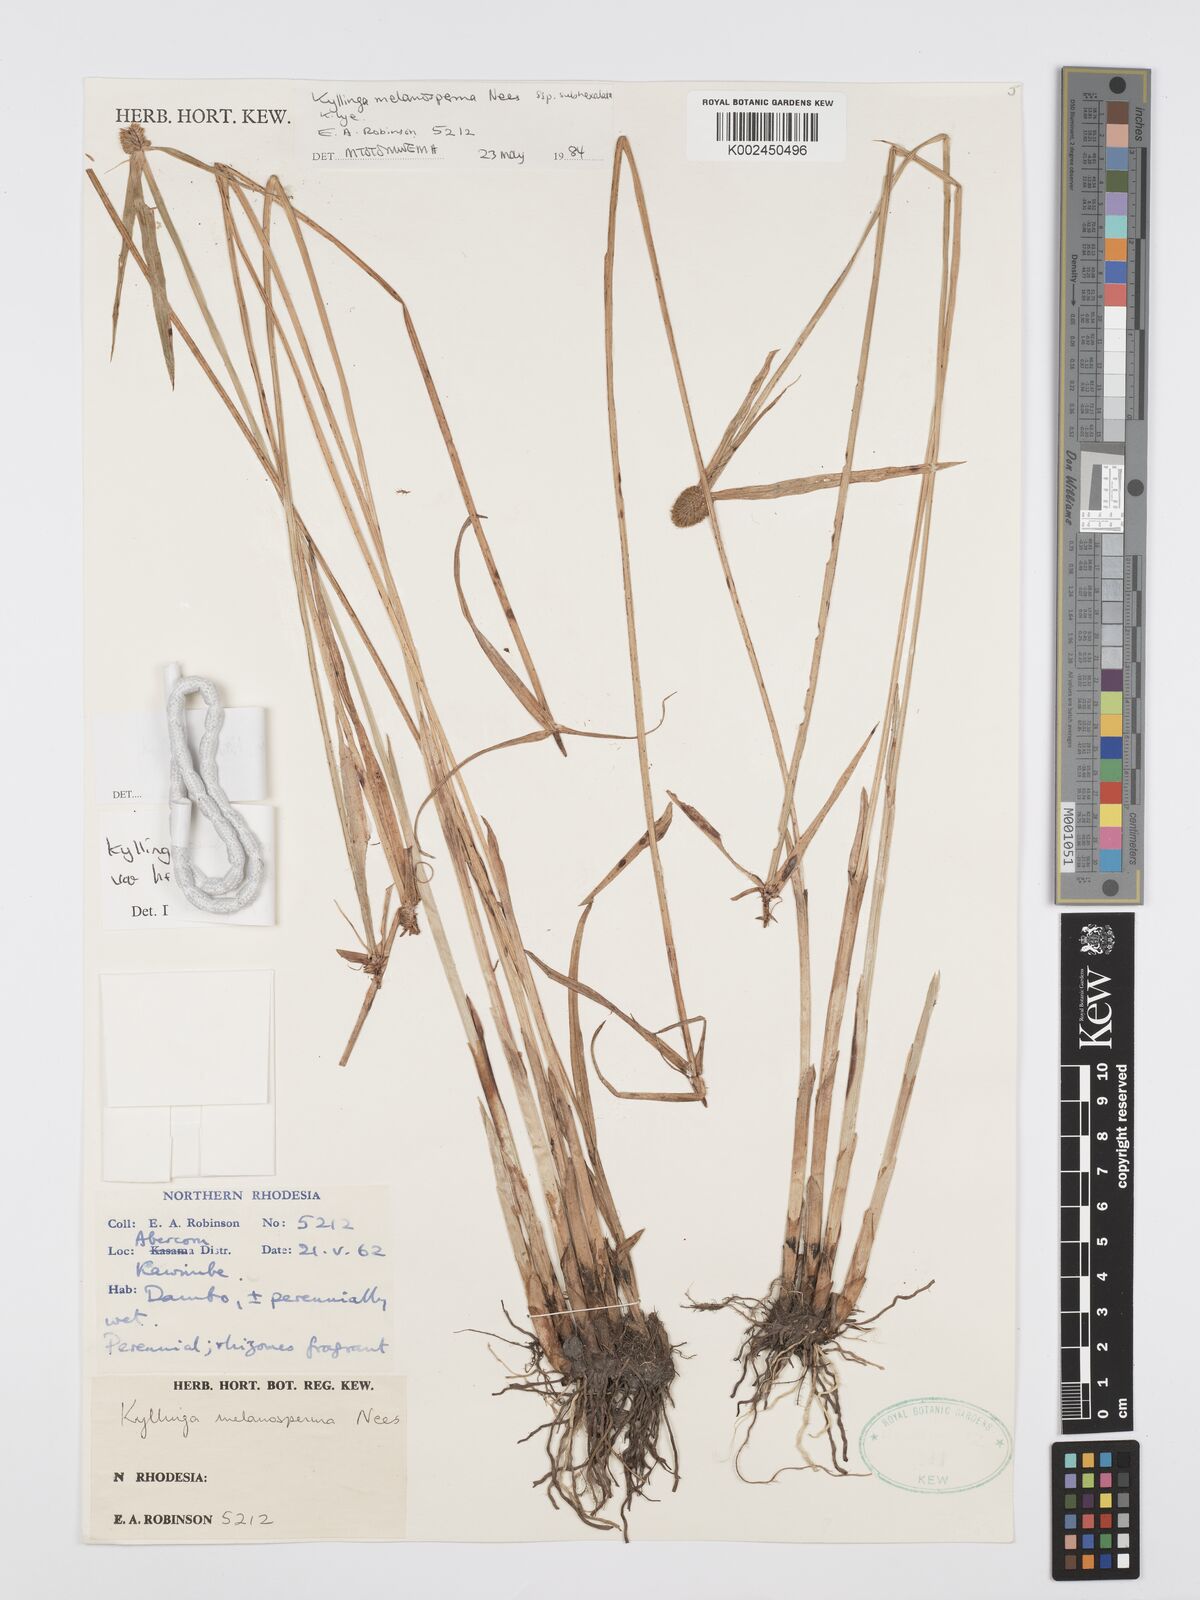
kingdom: Plantae
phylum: Tracheophyta
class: Liliopsida
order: Poales
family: Cyperaceae
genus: Cyperus
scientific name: Cyperus melanospermus
